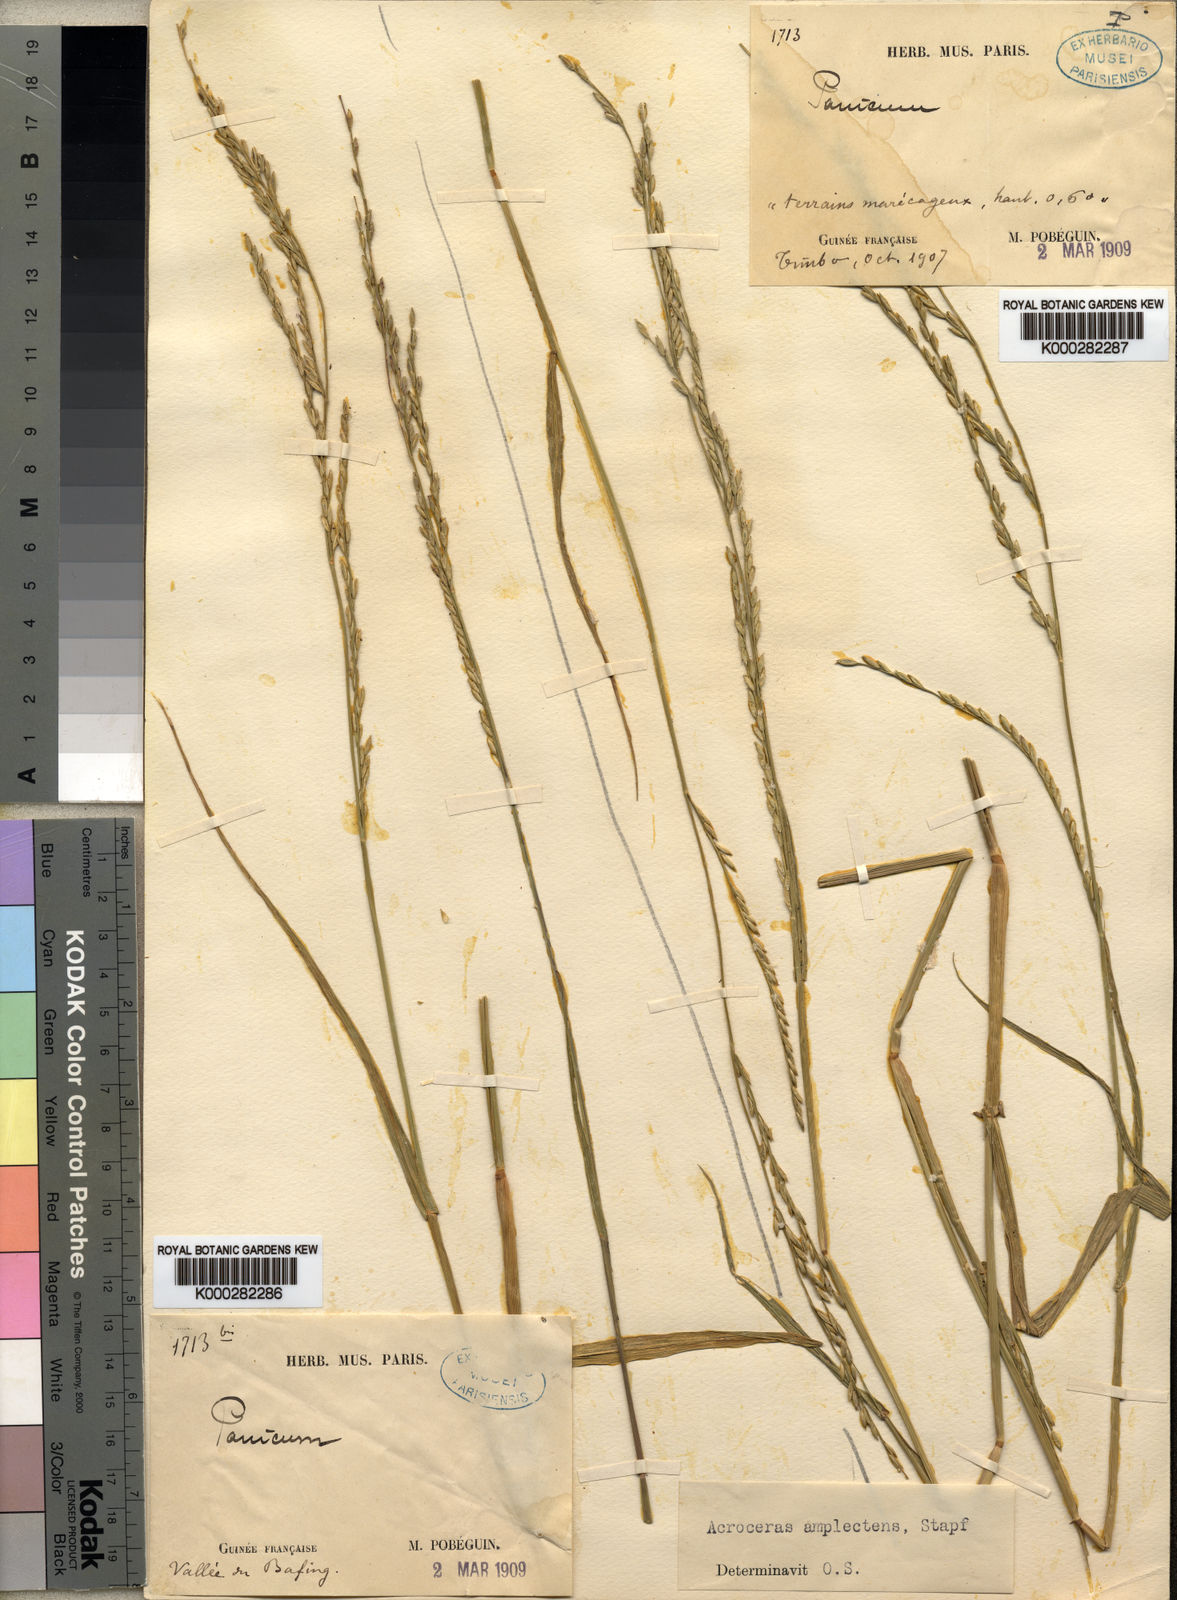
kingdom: Plantae
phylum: Tracheophyta
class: Liliopsida
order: Poales
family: Poaceae
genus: Acroceras
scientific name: Acroceras amplectens
